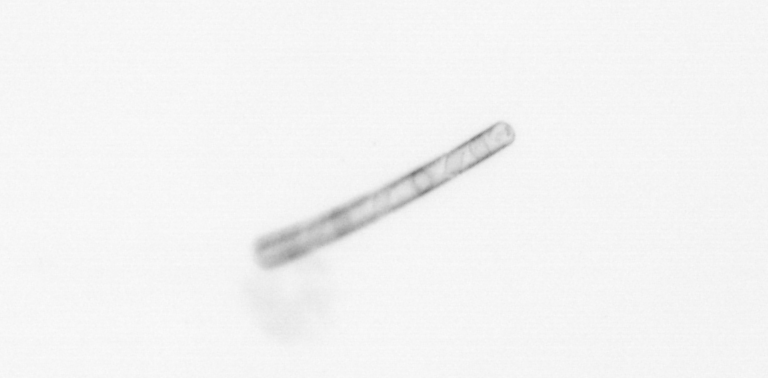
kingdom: Chromista
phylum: Ochrophyta
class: Bacillariophyceae
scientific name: Bacillariophyceae
